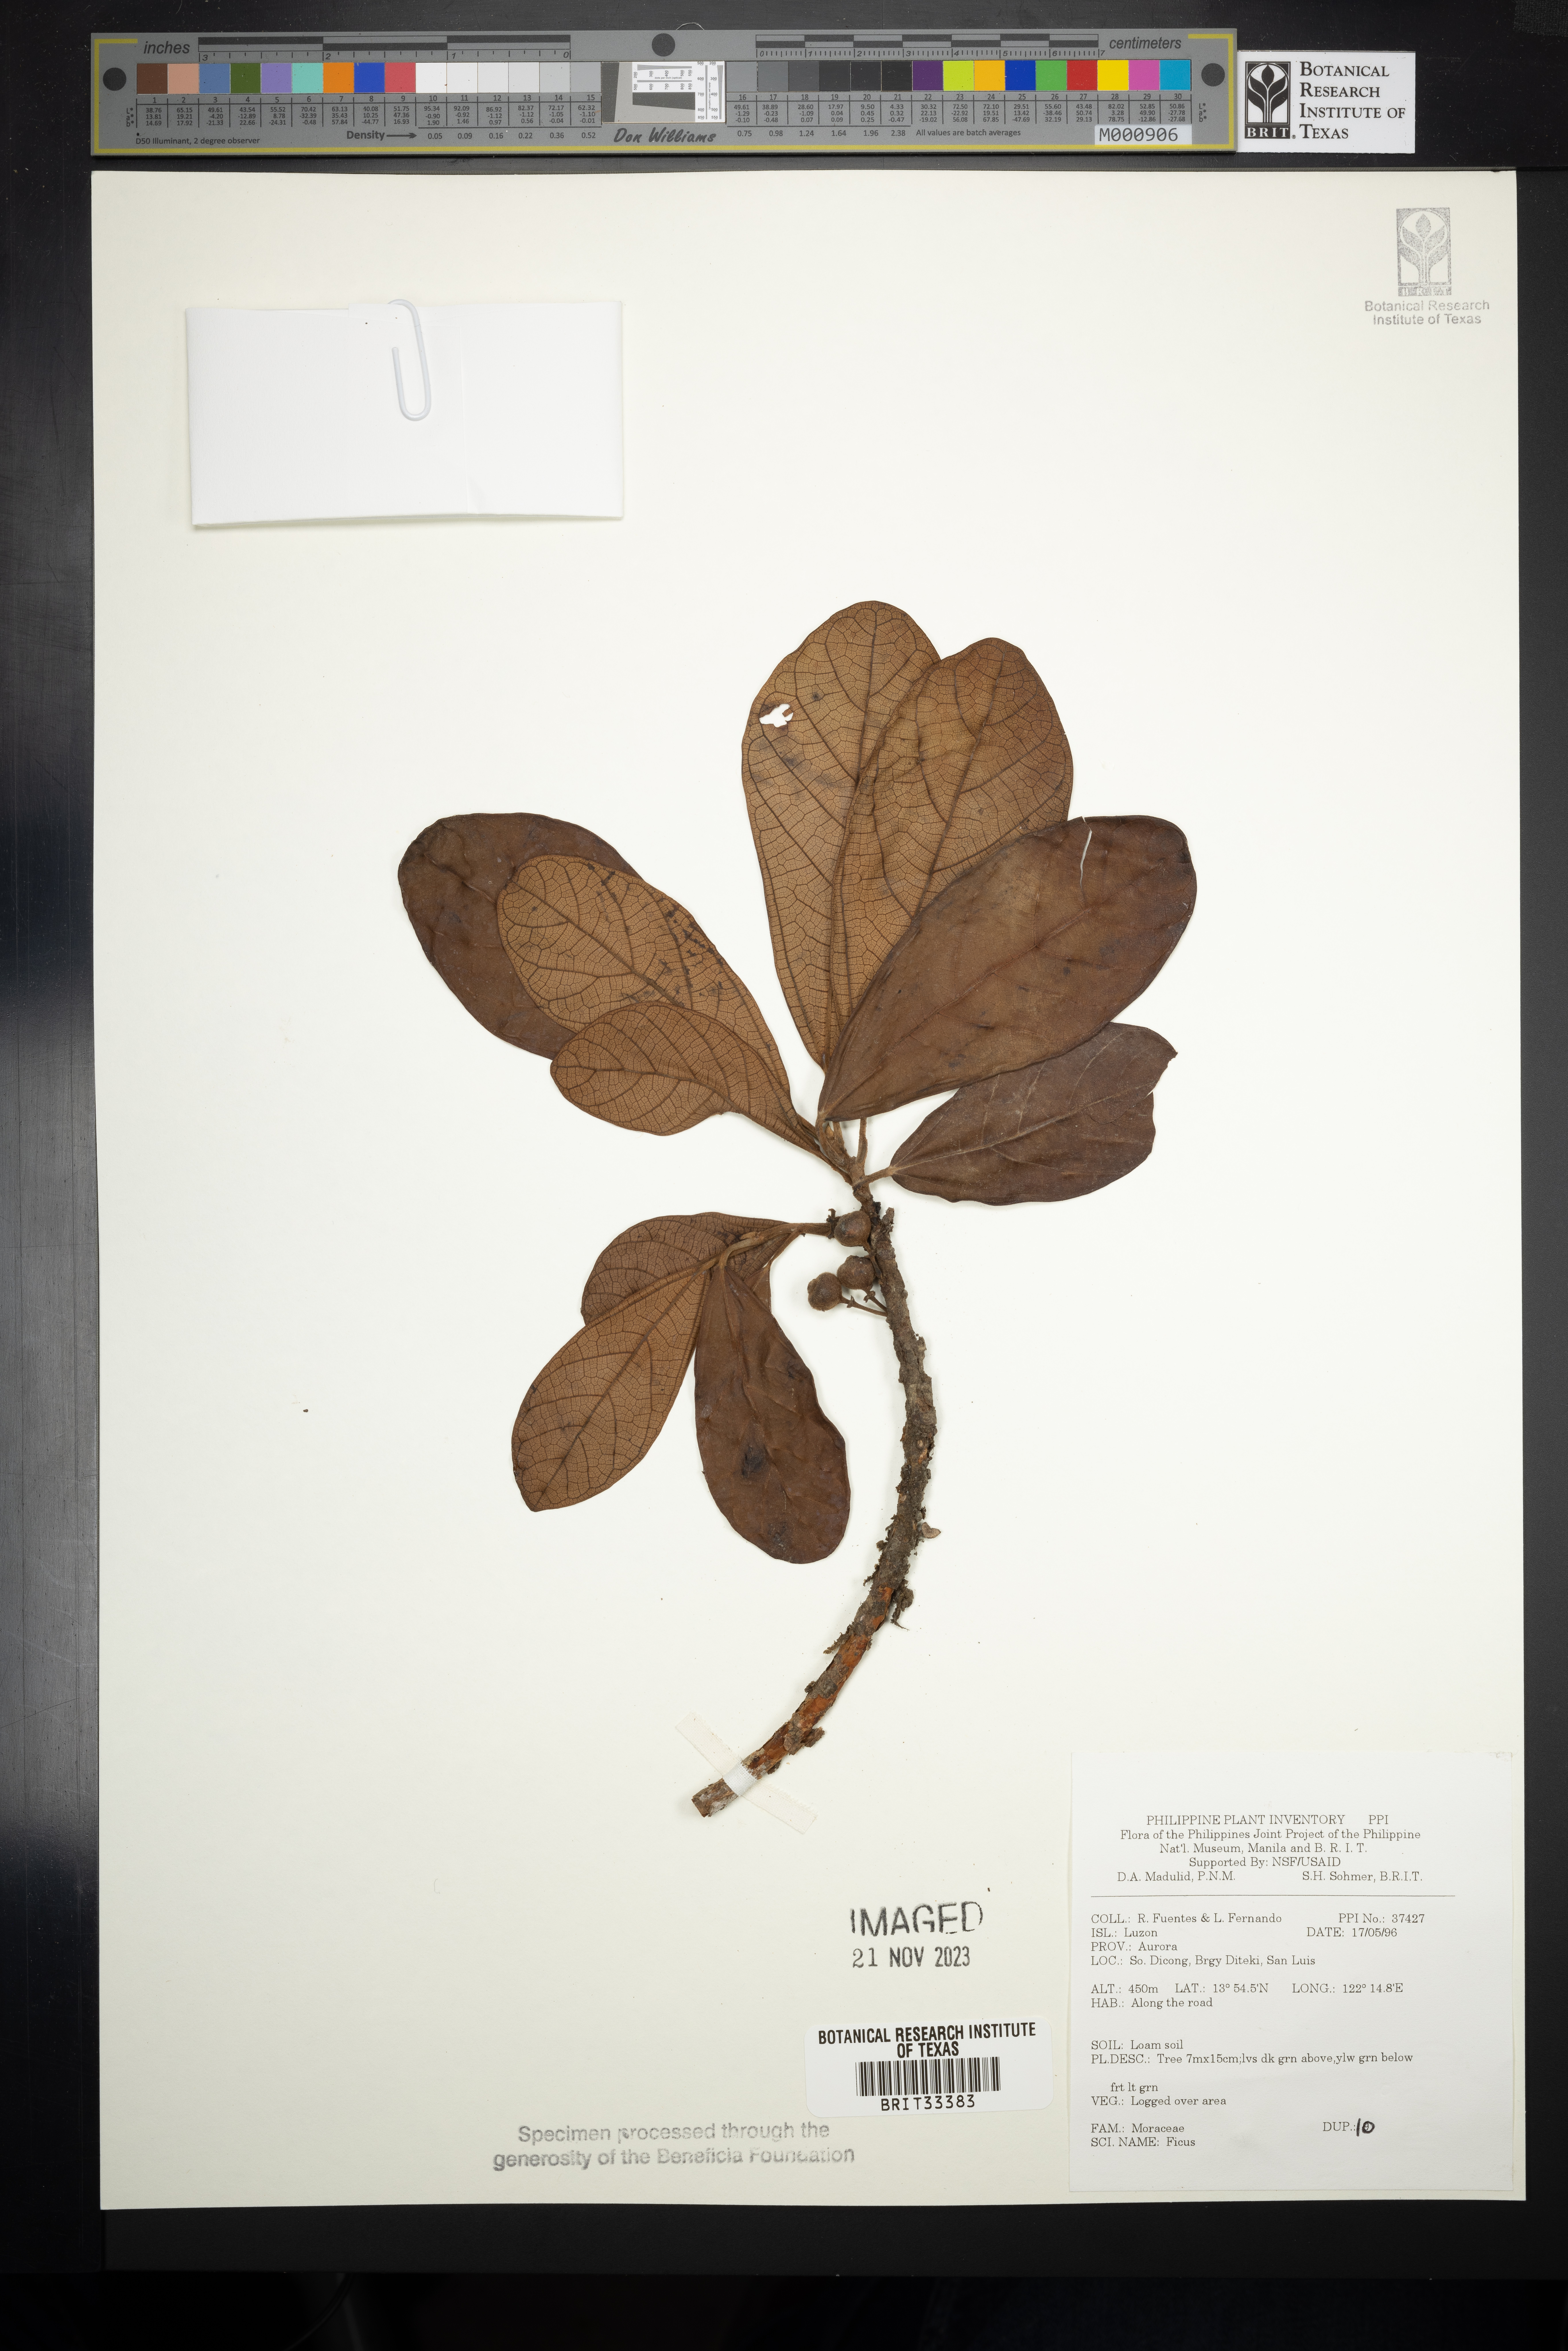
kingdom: Plantae
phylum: Tracheophyta
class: Magnoliopsida
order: Rosales
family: Moraceae
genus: Ficus
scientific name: Ficus
